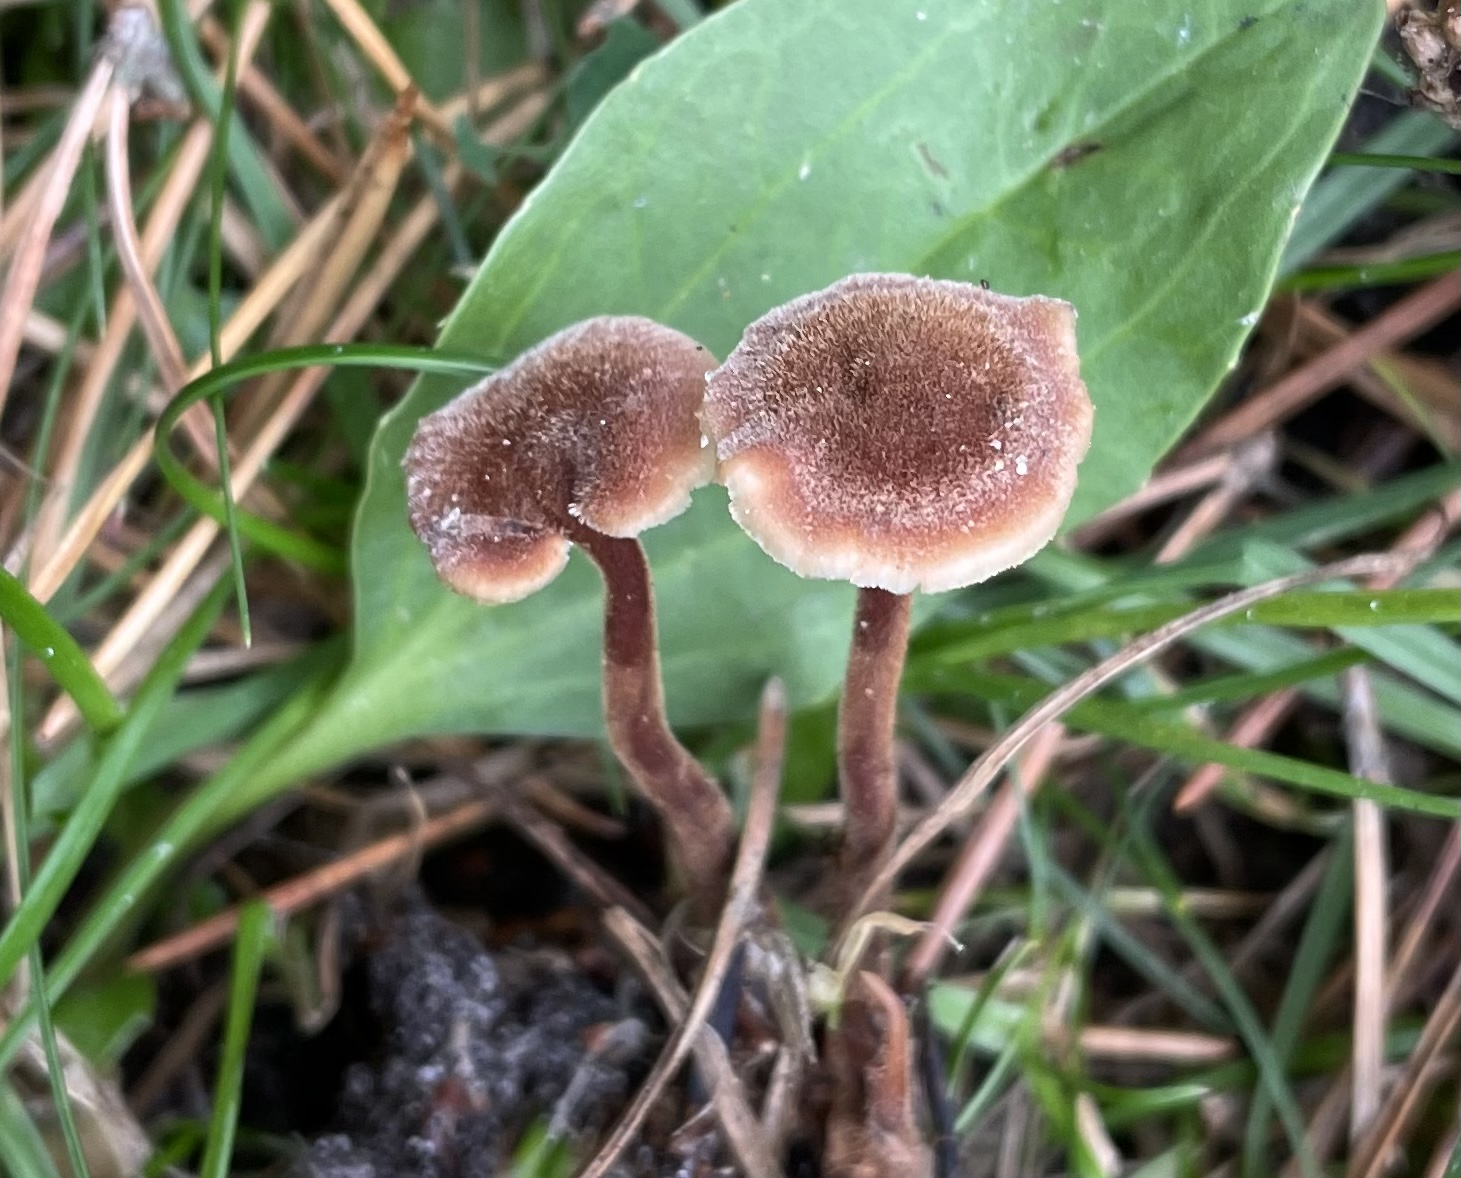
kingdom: Fungi
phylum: Basidiomycota
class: Agaricomycetes
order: Russulales
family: Auriscalpiaceae
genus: Auriscalpium
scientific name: Auriscalpium vulgare
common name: koglepigsvamp
